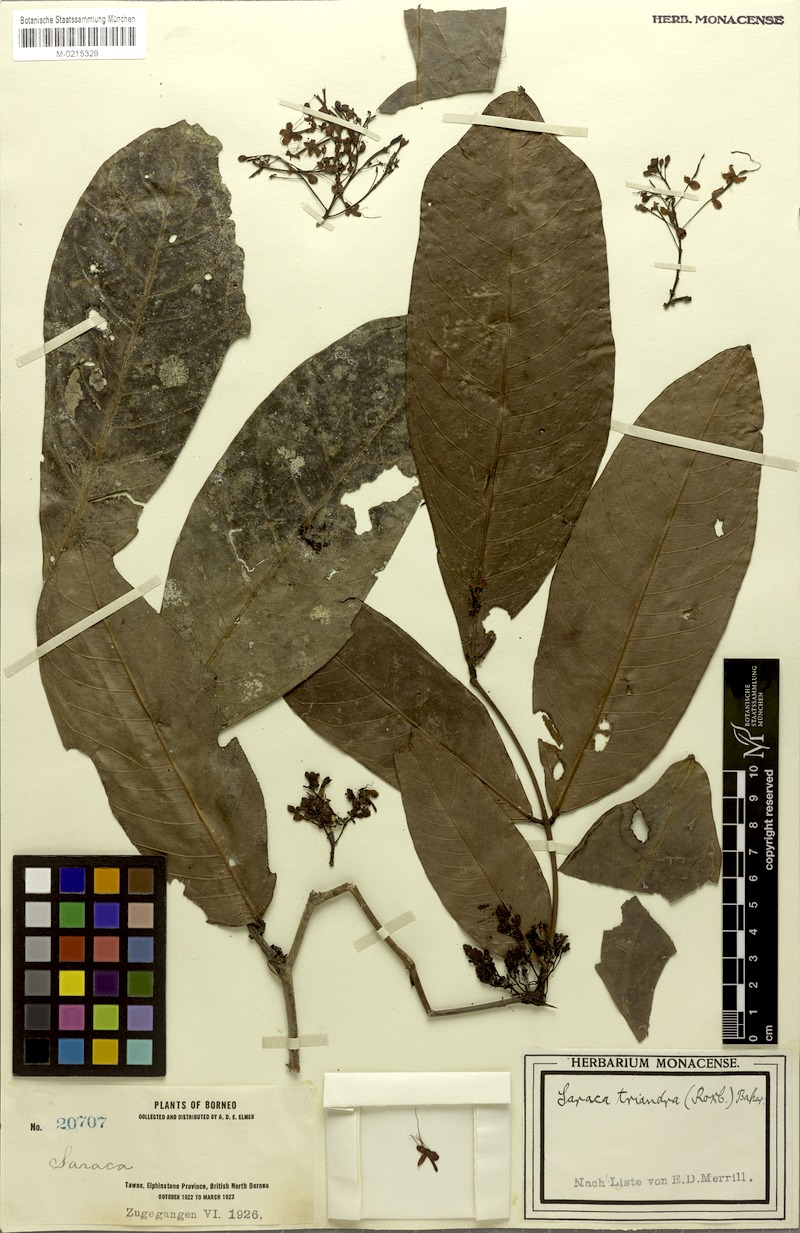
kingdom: Plantae
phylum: Tracheophyta
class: Magnoliopsida
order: Fabales
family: Fabaceae
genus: Saraca
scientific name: Saraca declinata
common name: Red saraca
